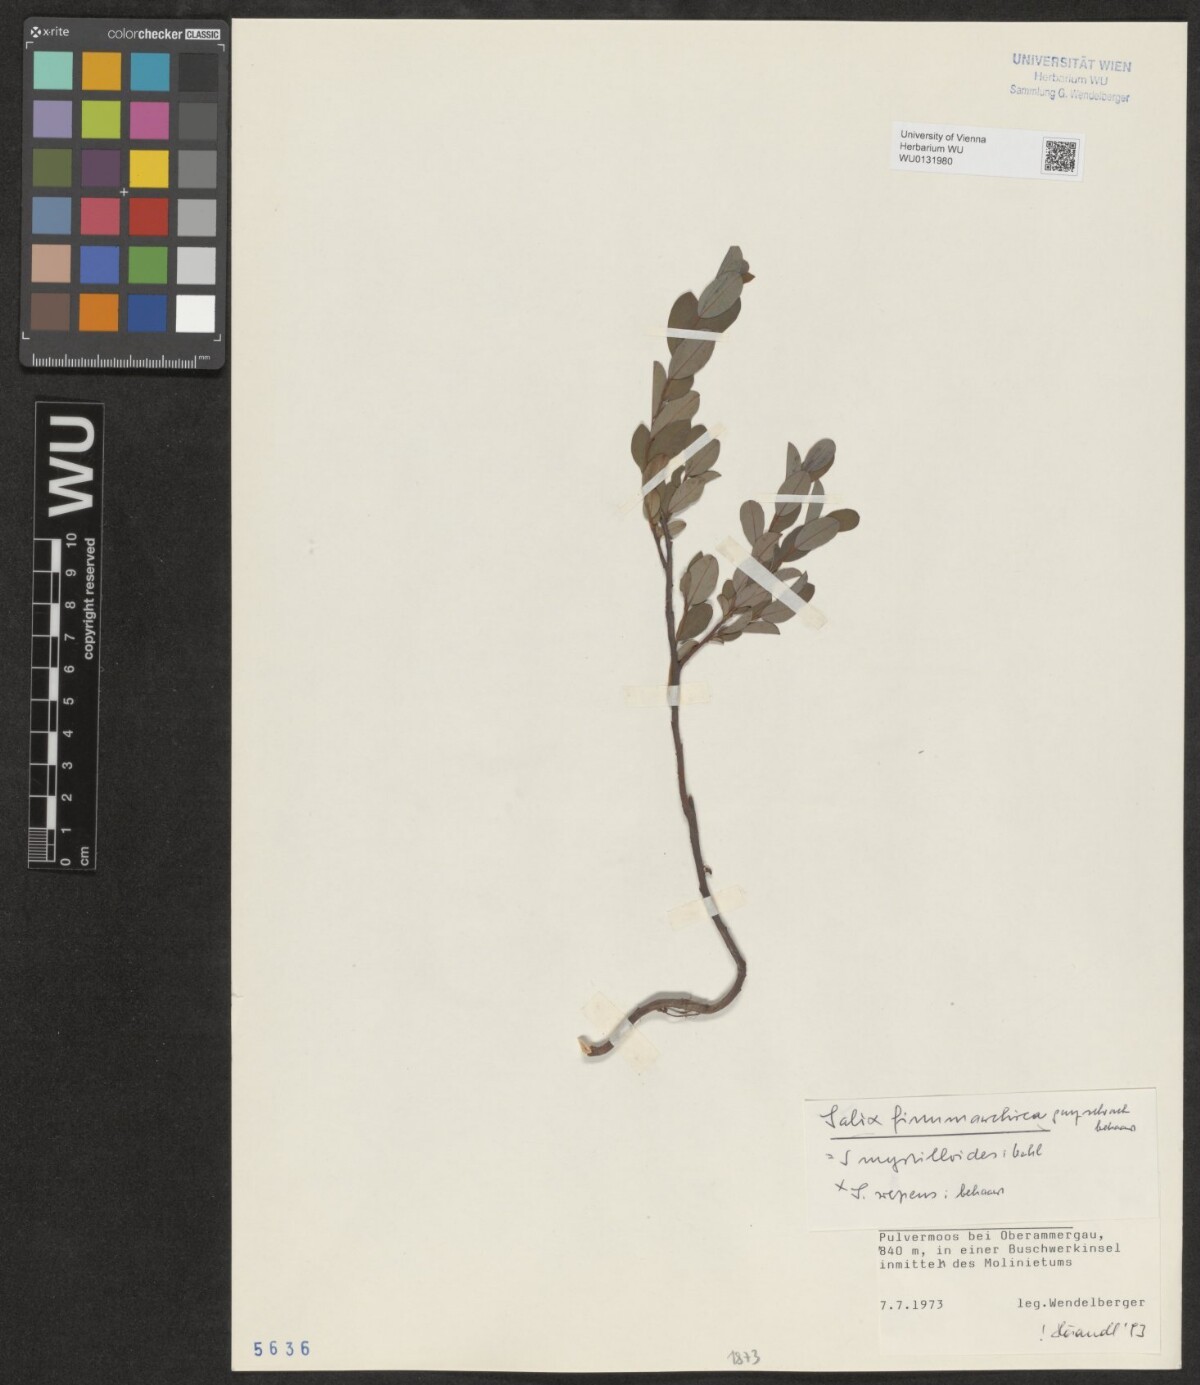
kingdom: Plantae
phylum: Tracheophyta
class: Magnoliopsida
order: Malpighiales
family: Salicaceae
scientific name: Salicaceae
